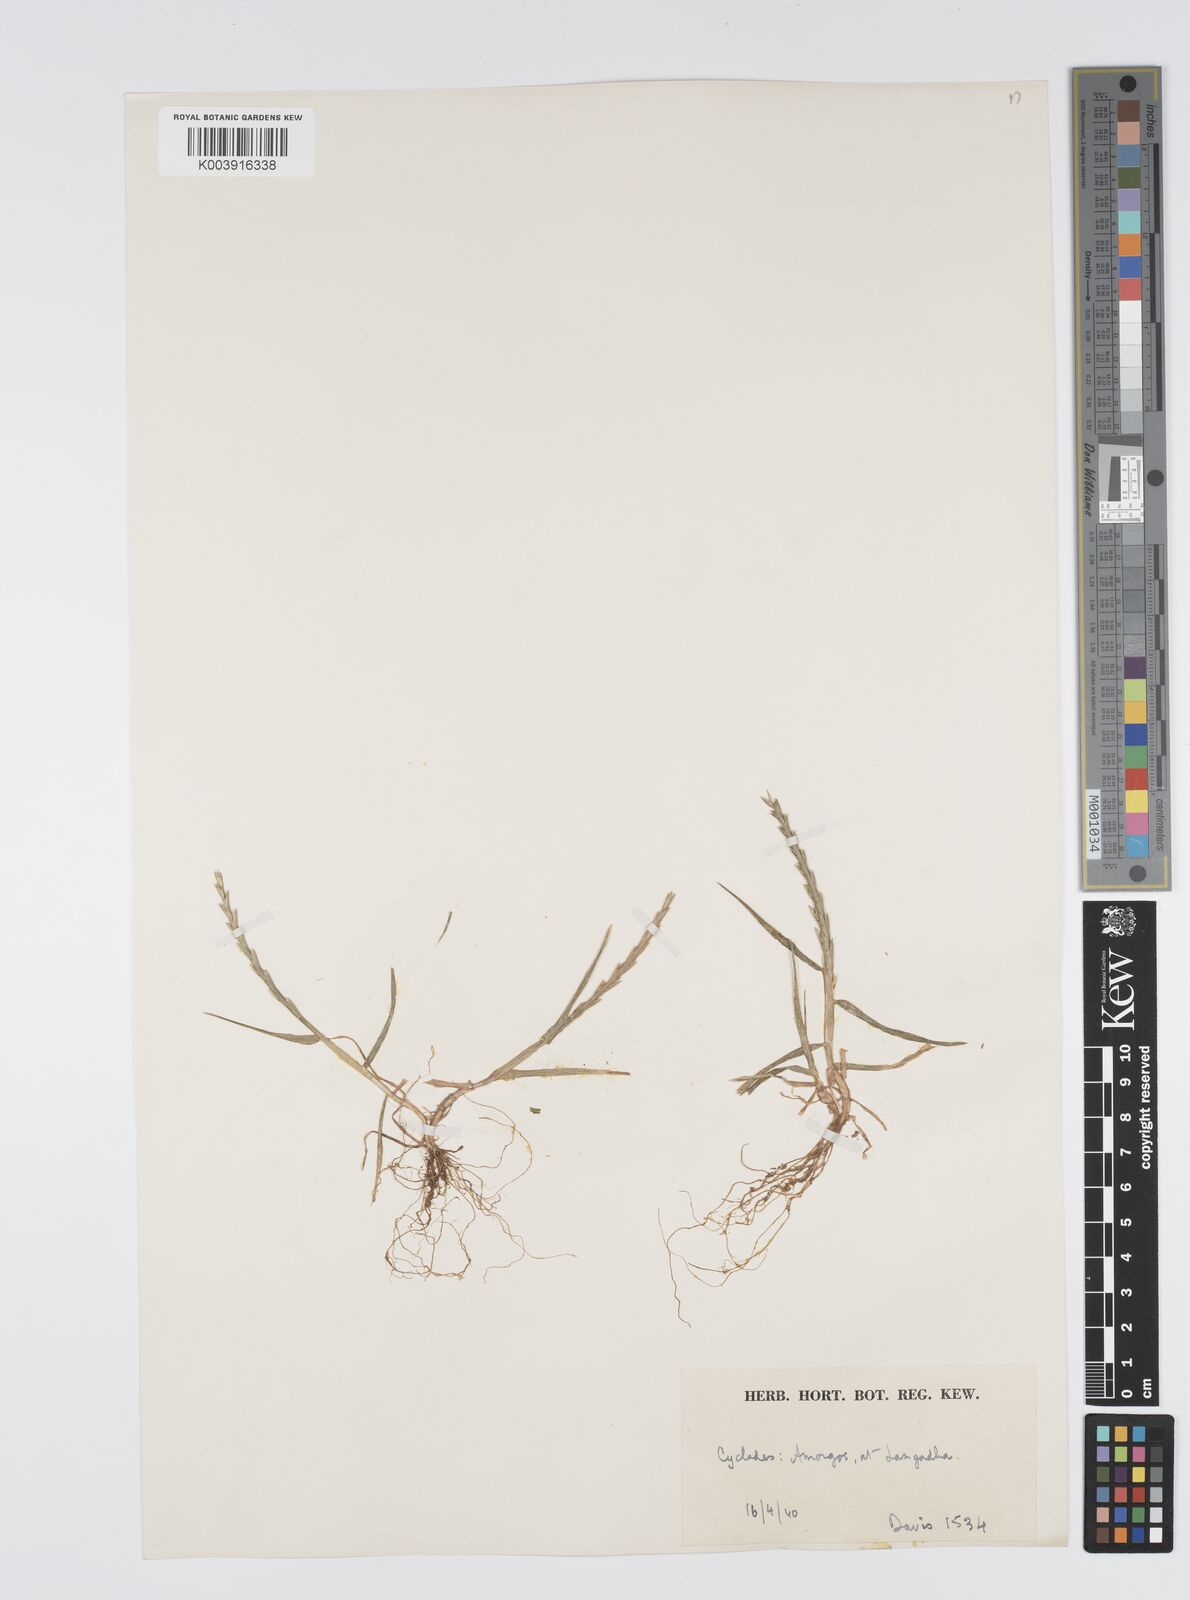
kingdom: Plantae
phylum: Tracheophyta
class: Liliopsida
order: Poales
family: Poaceae
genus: Lolium
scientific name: Lolium rigidum
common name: Wimmera ryegrass
